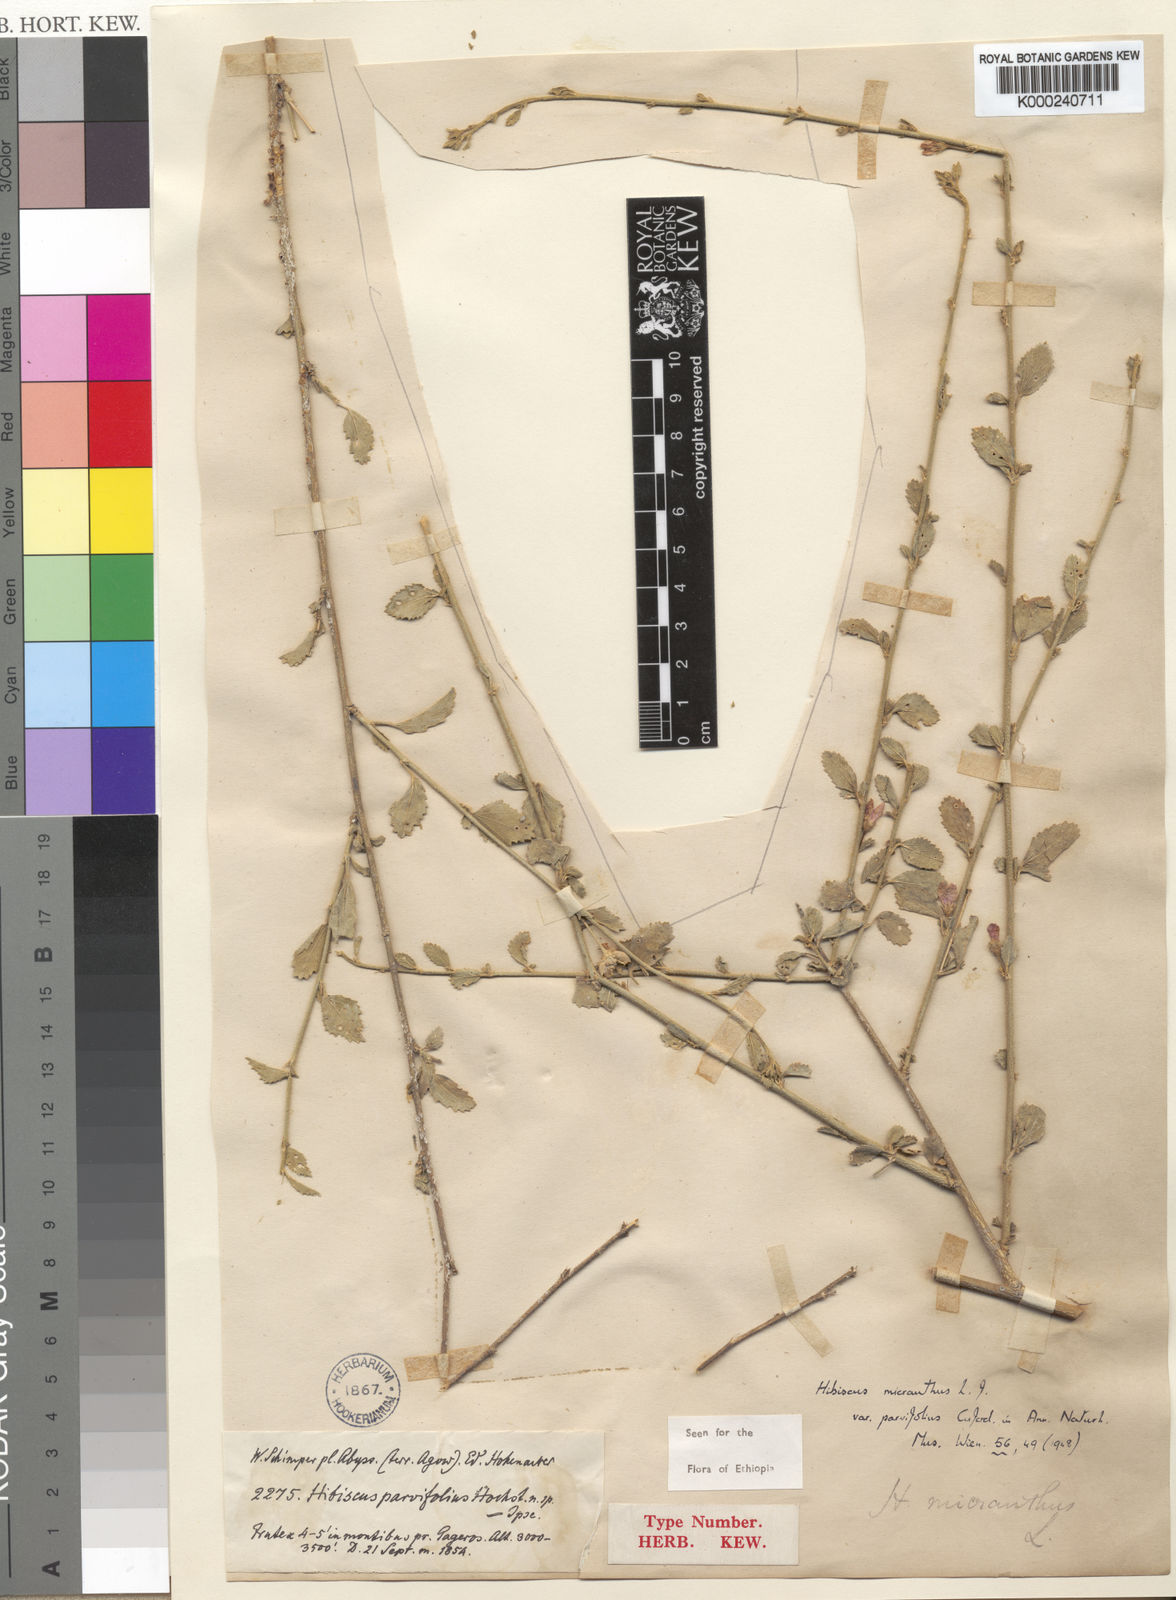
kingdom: Plantae
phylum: Tracheophyta
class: Magnoliopsida
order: Malvales
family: Malvaceae
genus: Hibiscus
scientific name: Hibiscus micranthus
